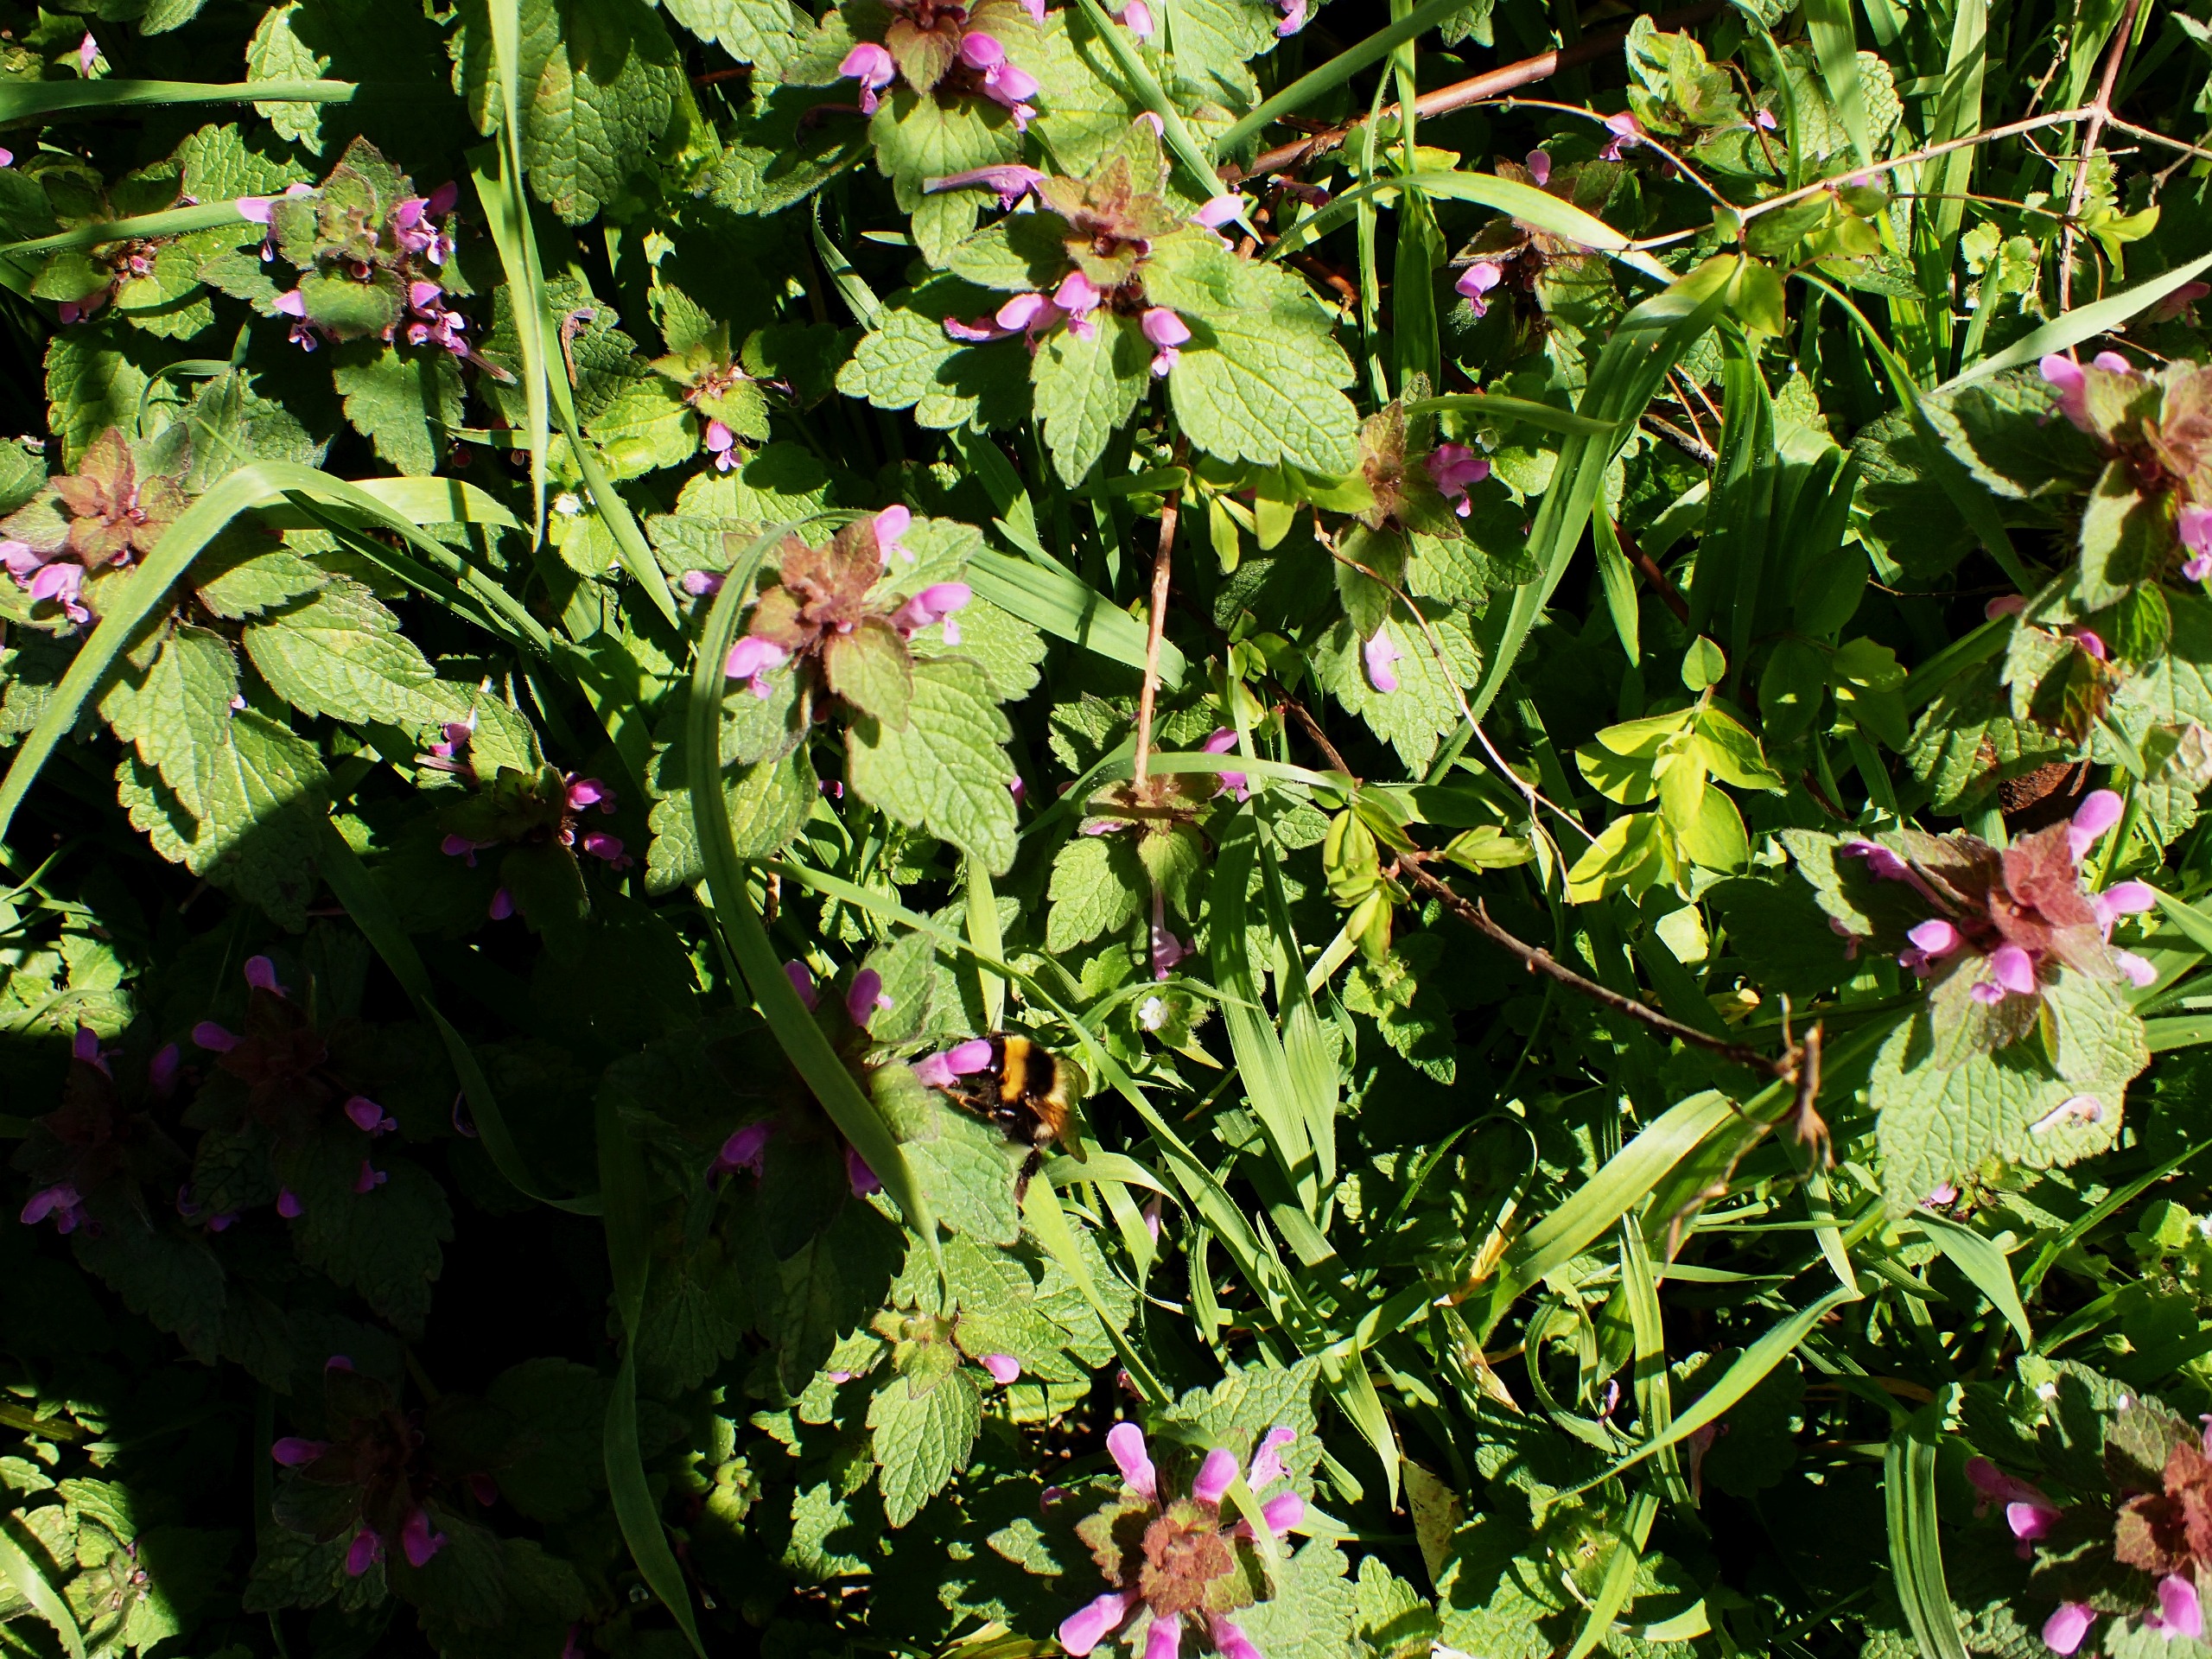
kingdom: Plantae
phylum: Tracheophyta
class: Magnoliopsida
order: Lamiales
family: Lamiaceae
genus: Lamium
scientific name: Lamium purpureum
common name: Rød tvetand
